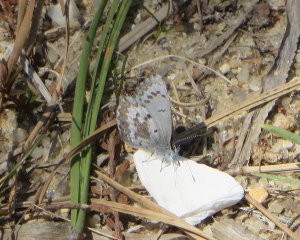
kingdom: Animalia
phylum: Arthropoda
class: Insecta
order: Lepidoptera
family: Lycaenidae
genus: Celastrina
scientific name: Celastrina ladon
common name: Spring Azure
